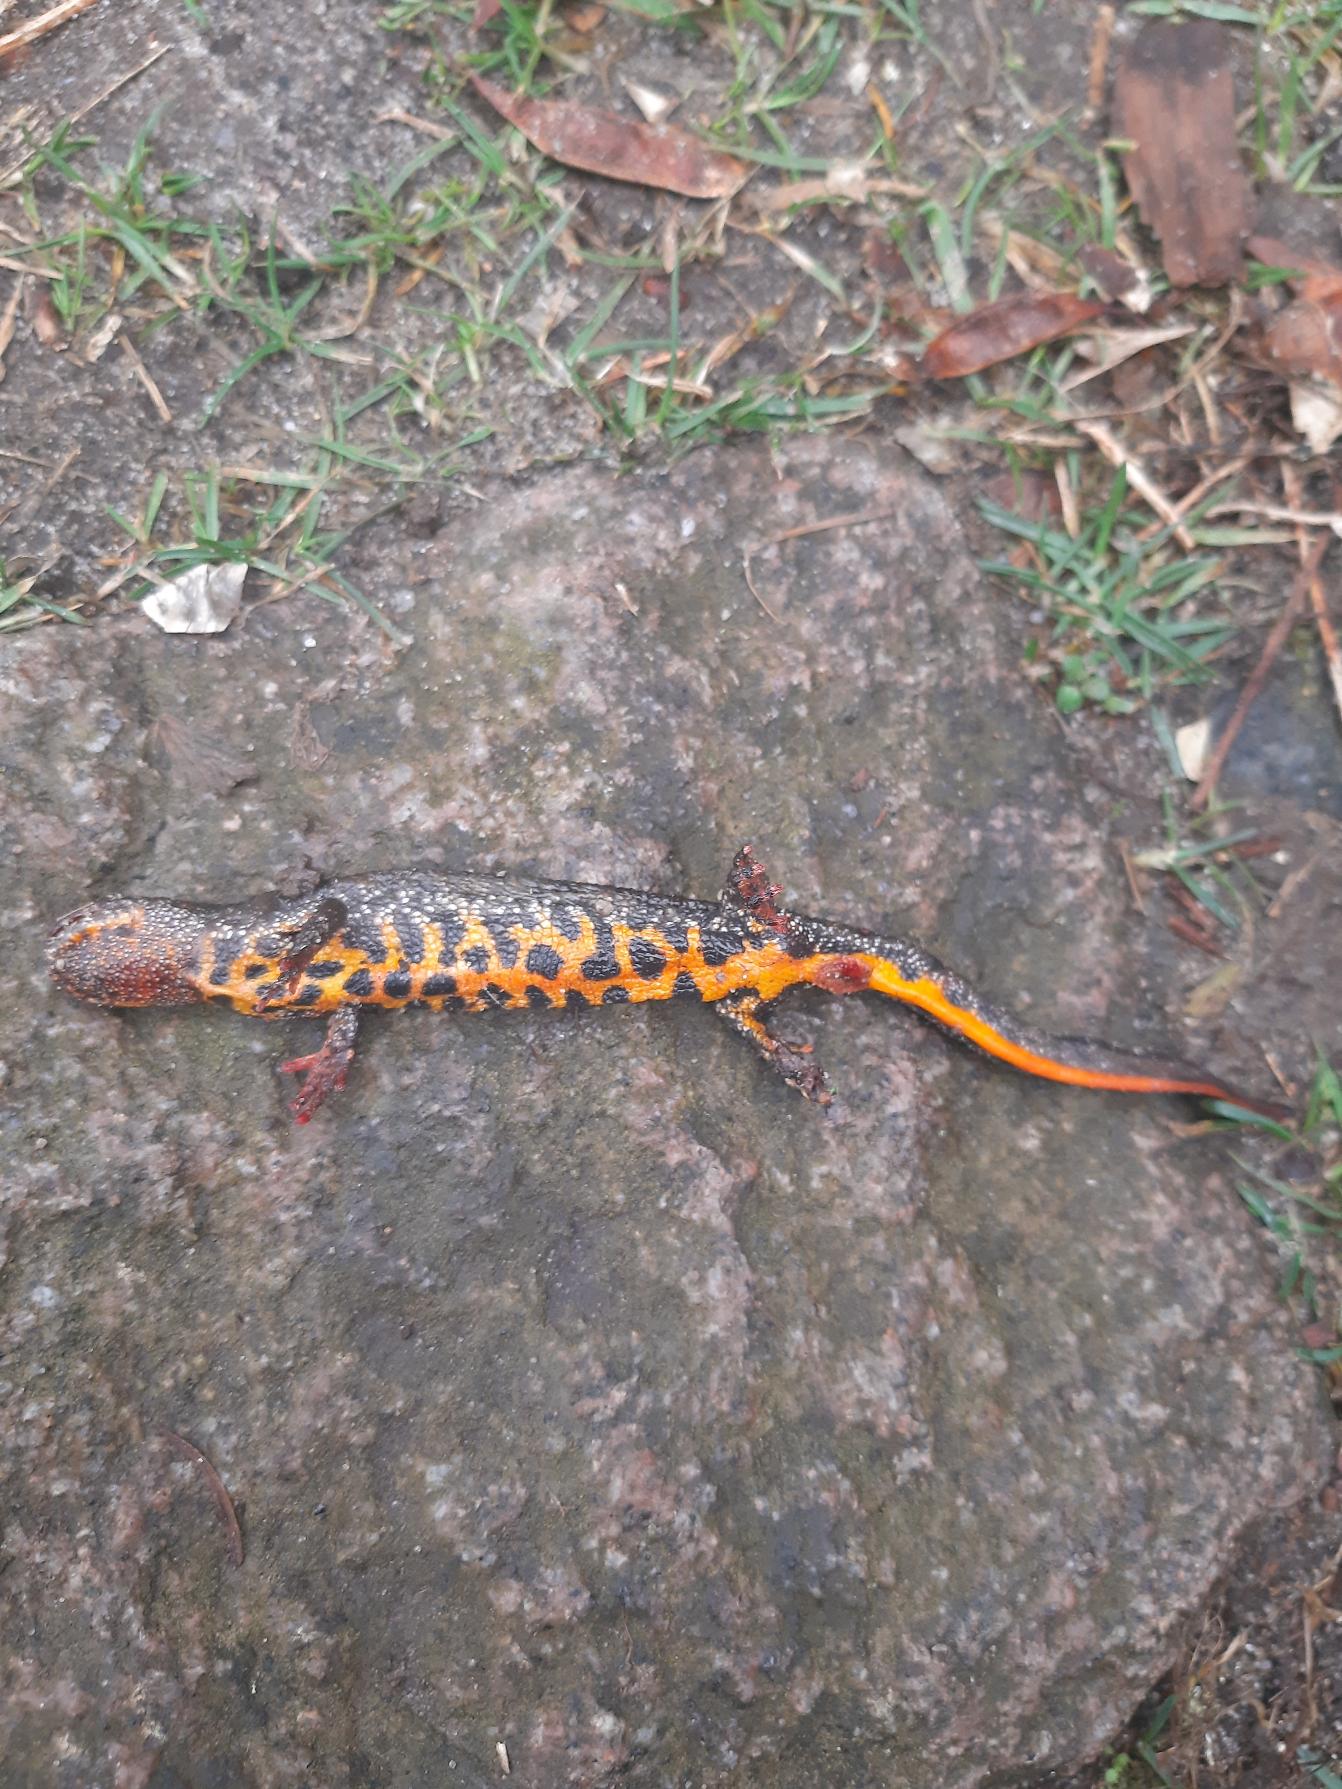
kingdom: Animalia
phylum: Chordata
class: Amphibia
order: Caudata
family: Salamandridae
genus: Triturus
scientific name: Triturus cristatus
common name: Stor vandsalamander
